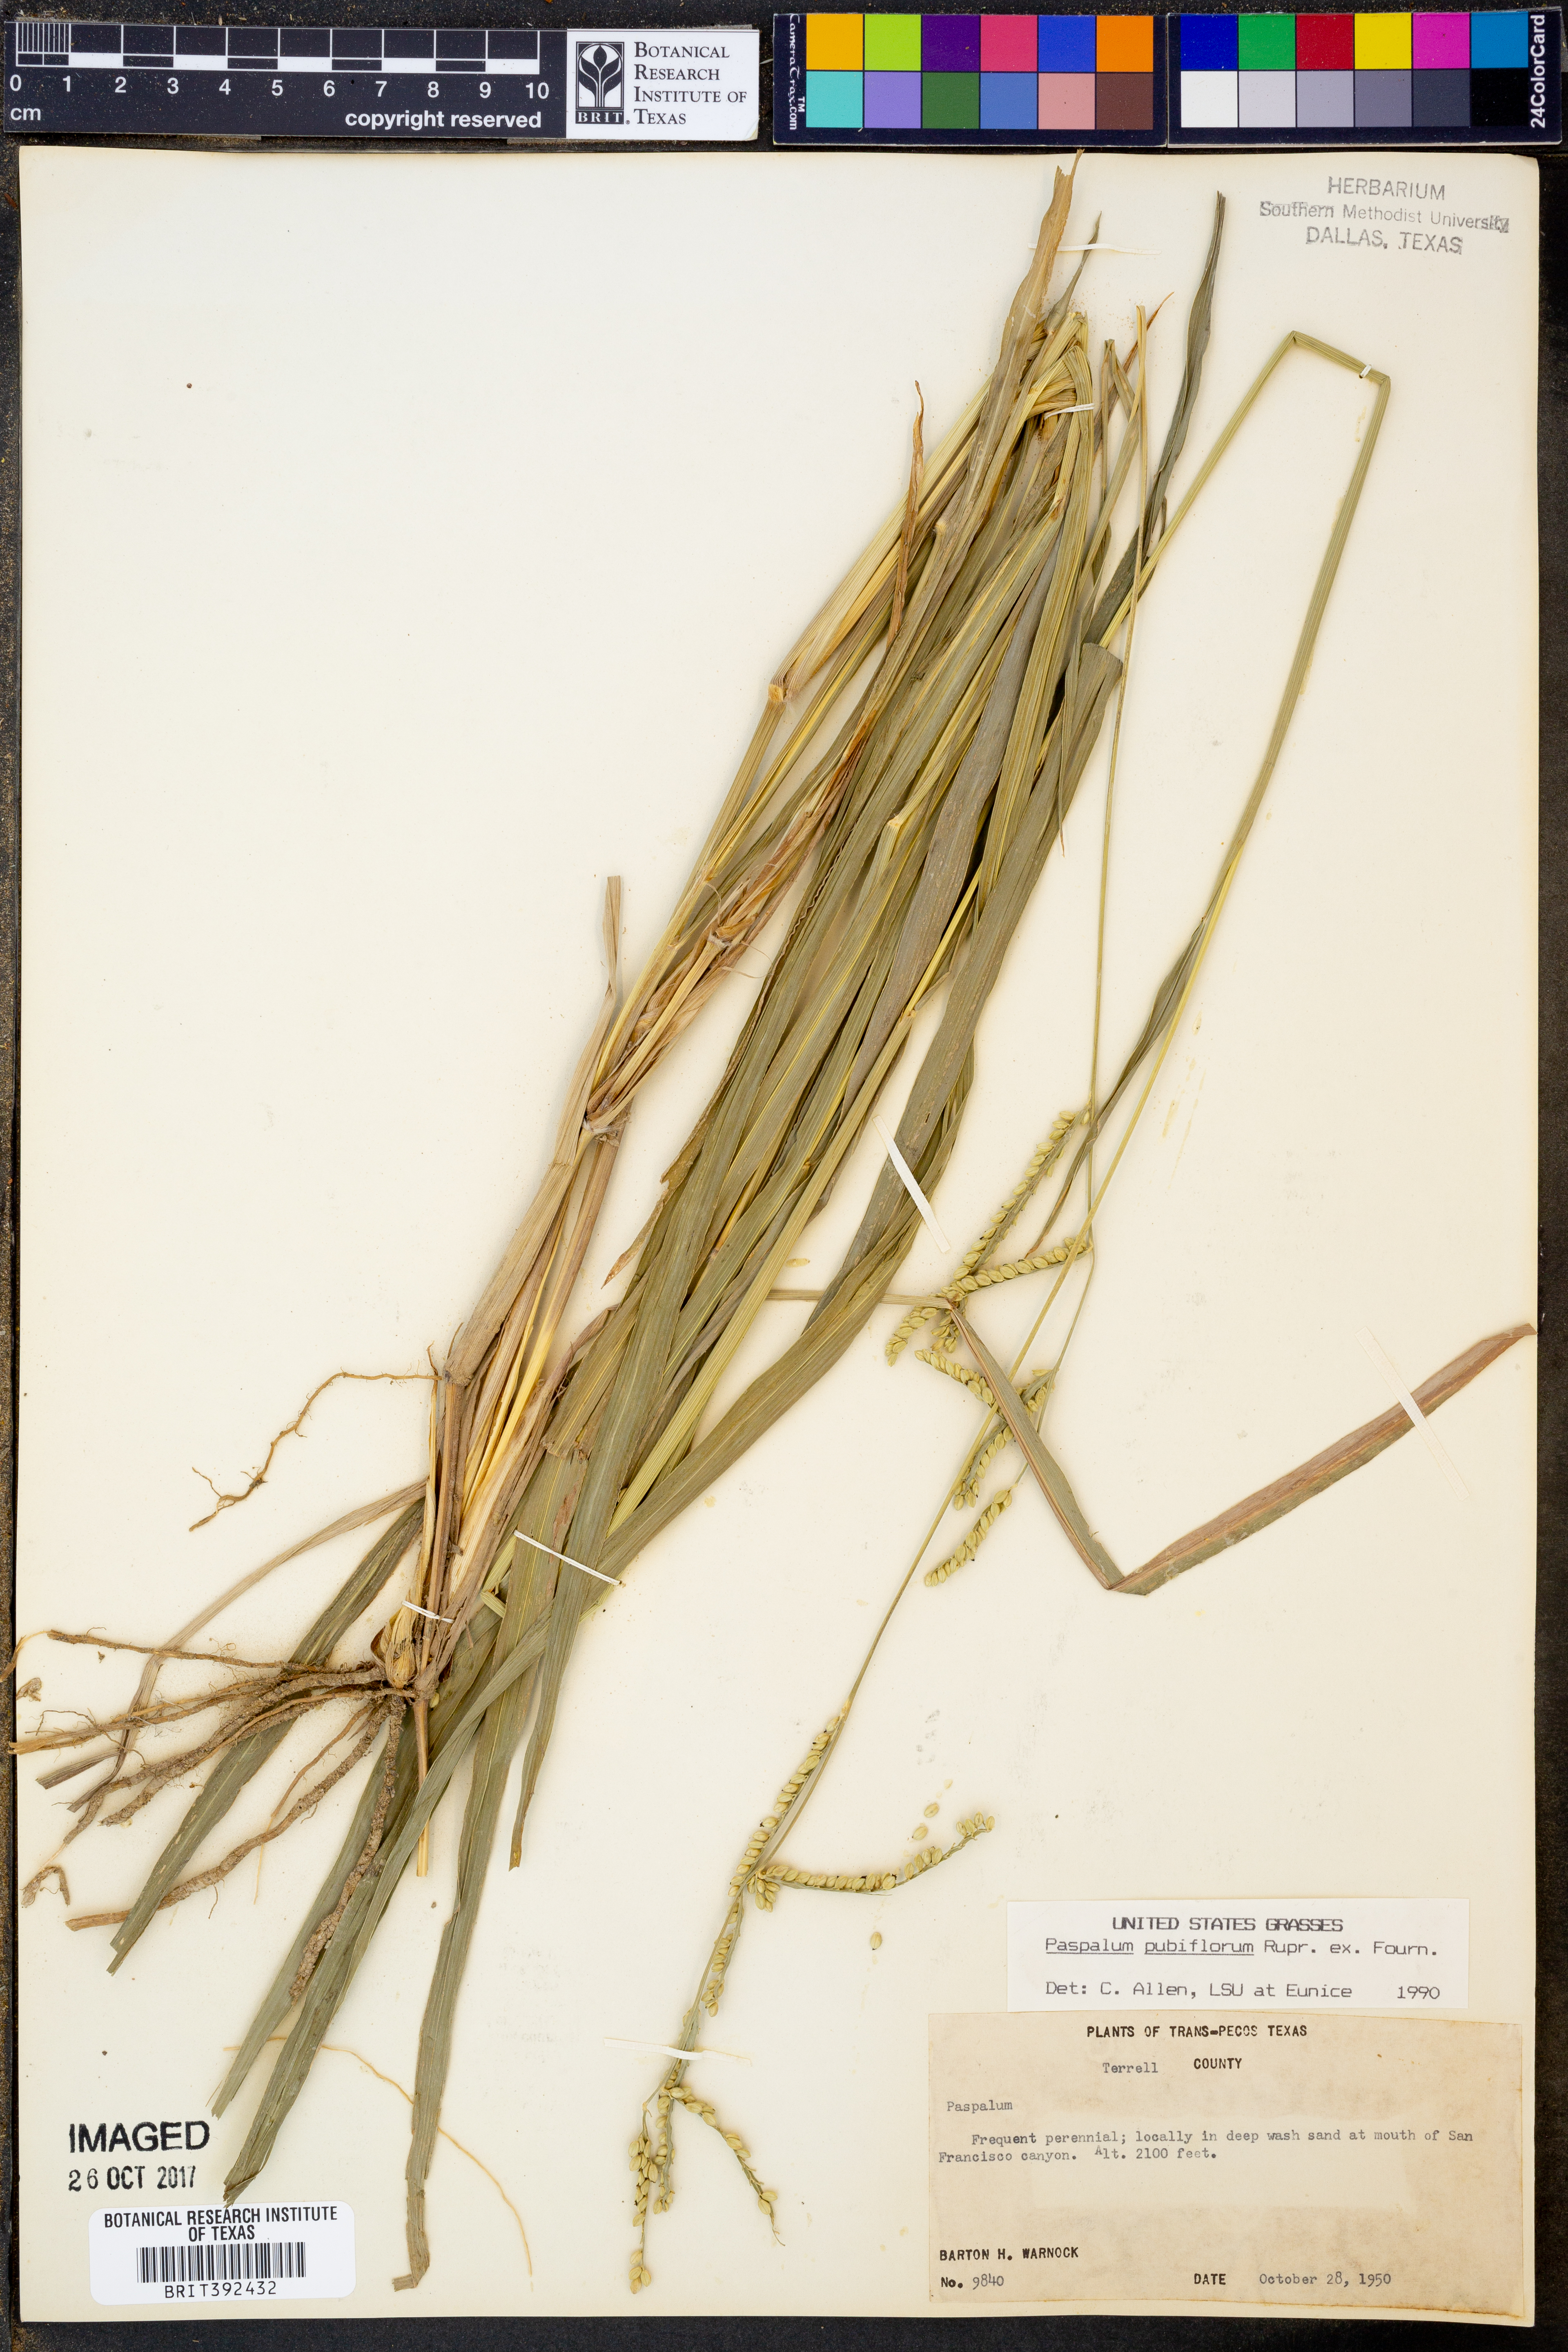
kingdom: Plantae
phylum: Tracheophyta
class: Liliopsida
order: Poales
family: Poaceae
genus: Paspalum
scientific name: Paspalum pubiflorum
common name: Hairy-seed paspalum
